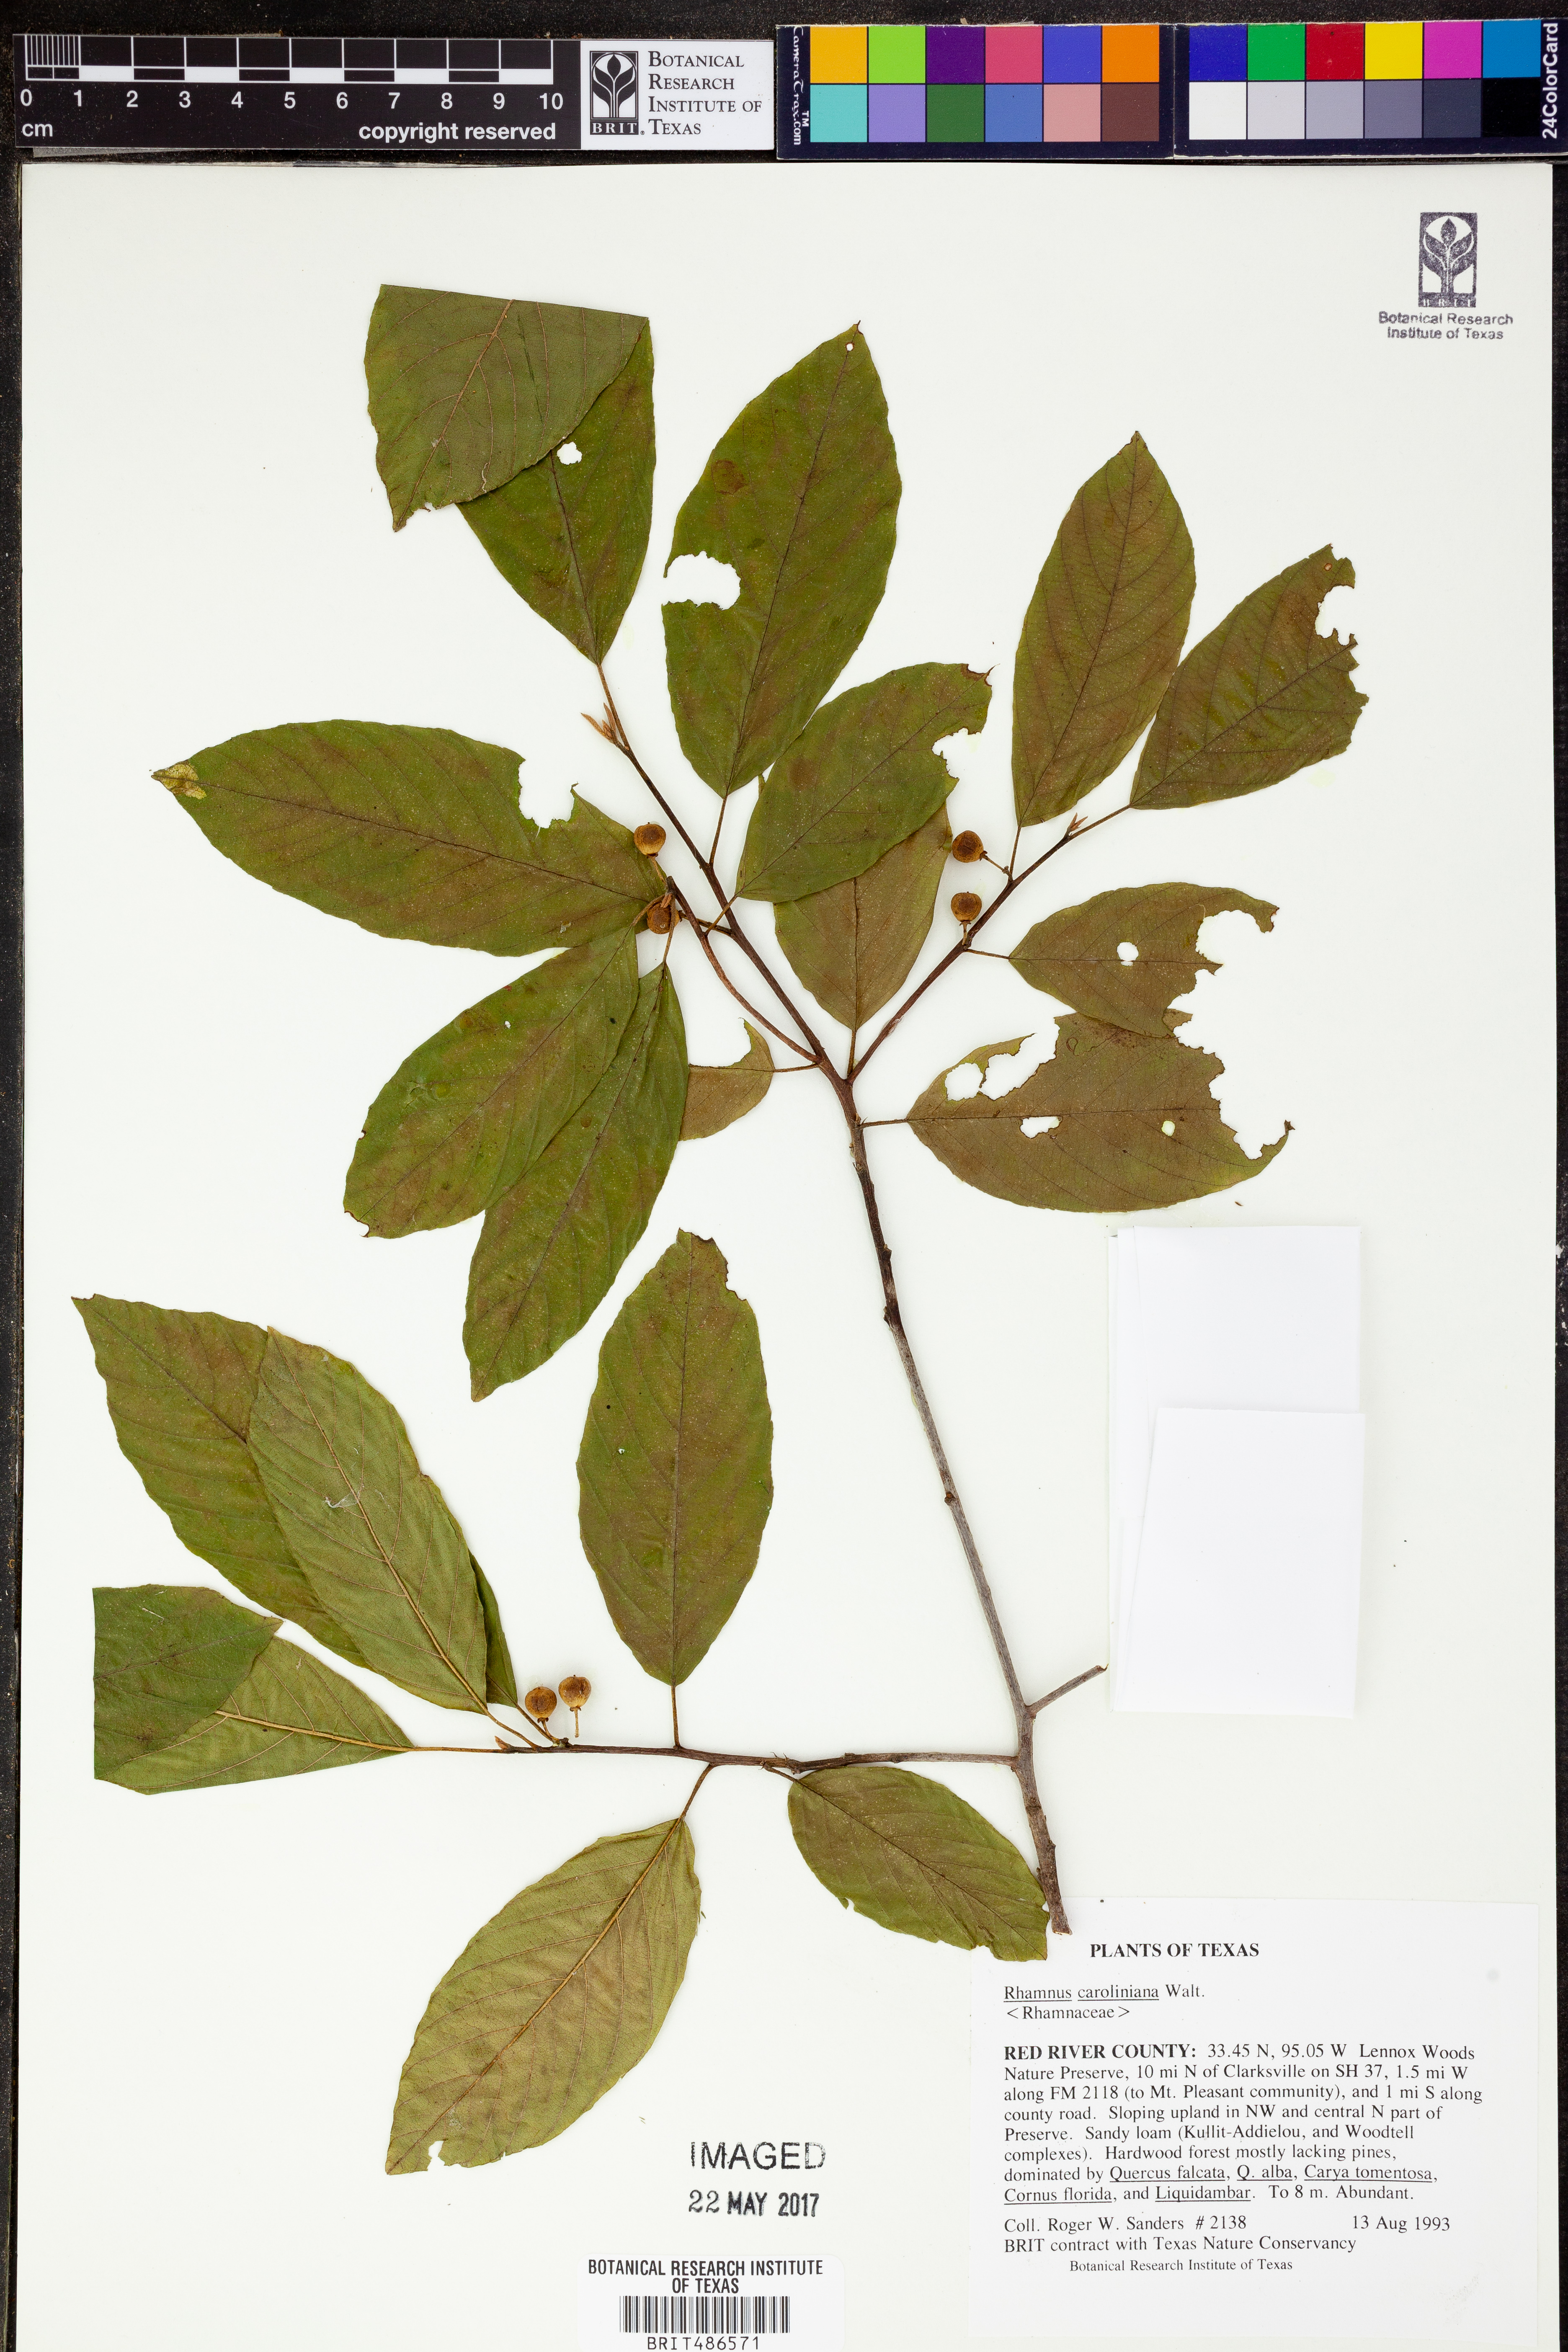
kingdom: Plantae
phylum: Tracheophyta
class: Magnoliopsida
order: Rosales
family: Rhamnaceae
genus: Frangula
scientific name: Frangula caroliniana
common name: Carolina buckthorn
